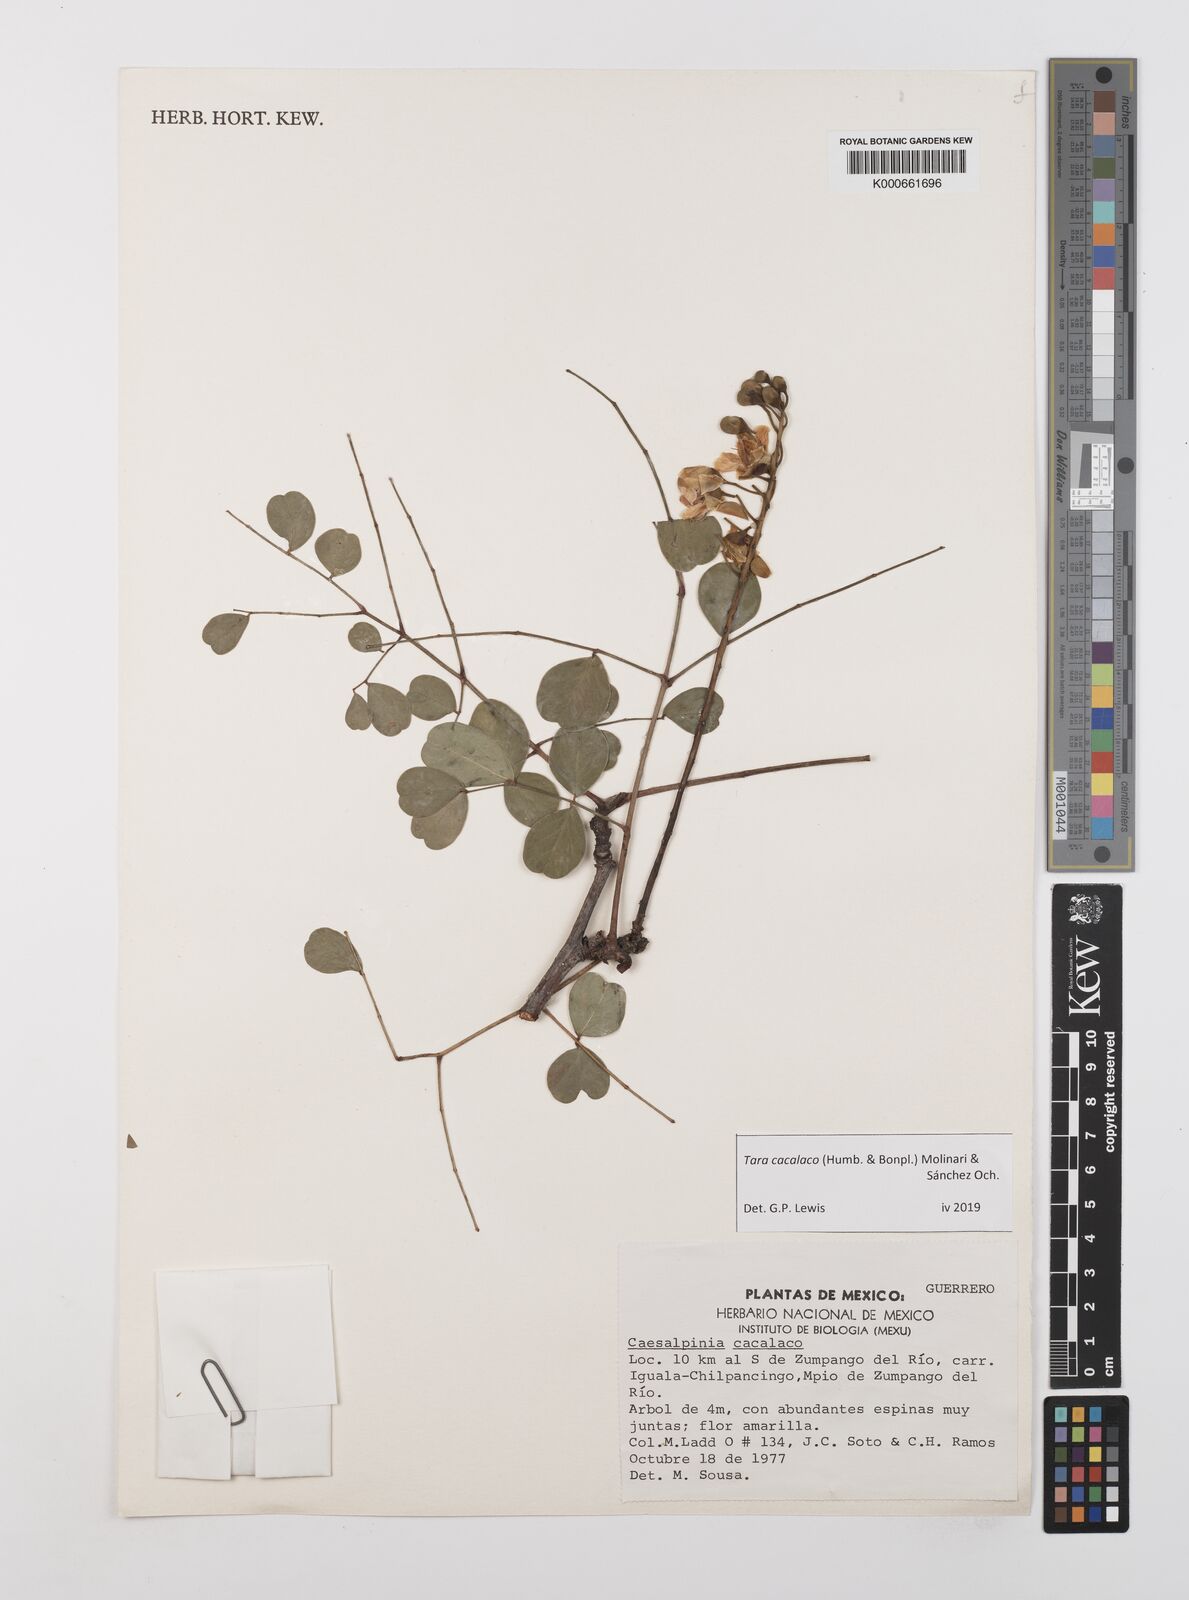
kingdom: Plantae
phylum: Tracheophyta
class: Magnoliopsida
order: Fabales
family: Fabaceae
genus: Tara
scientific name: Tara cacalaco
